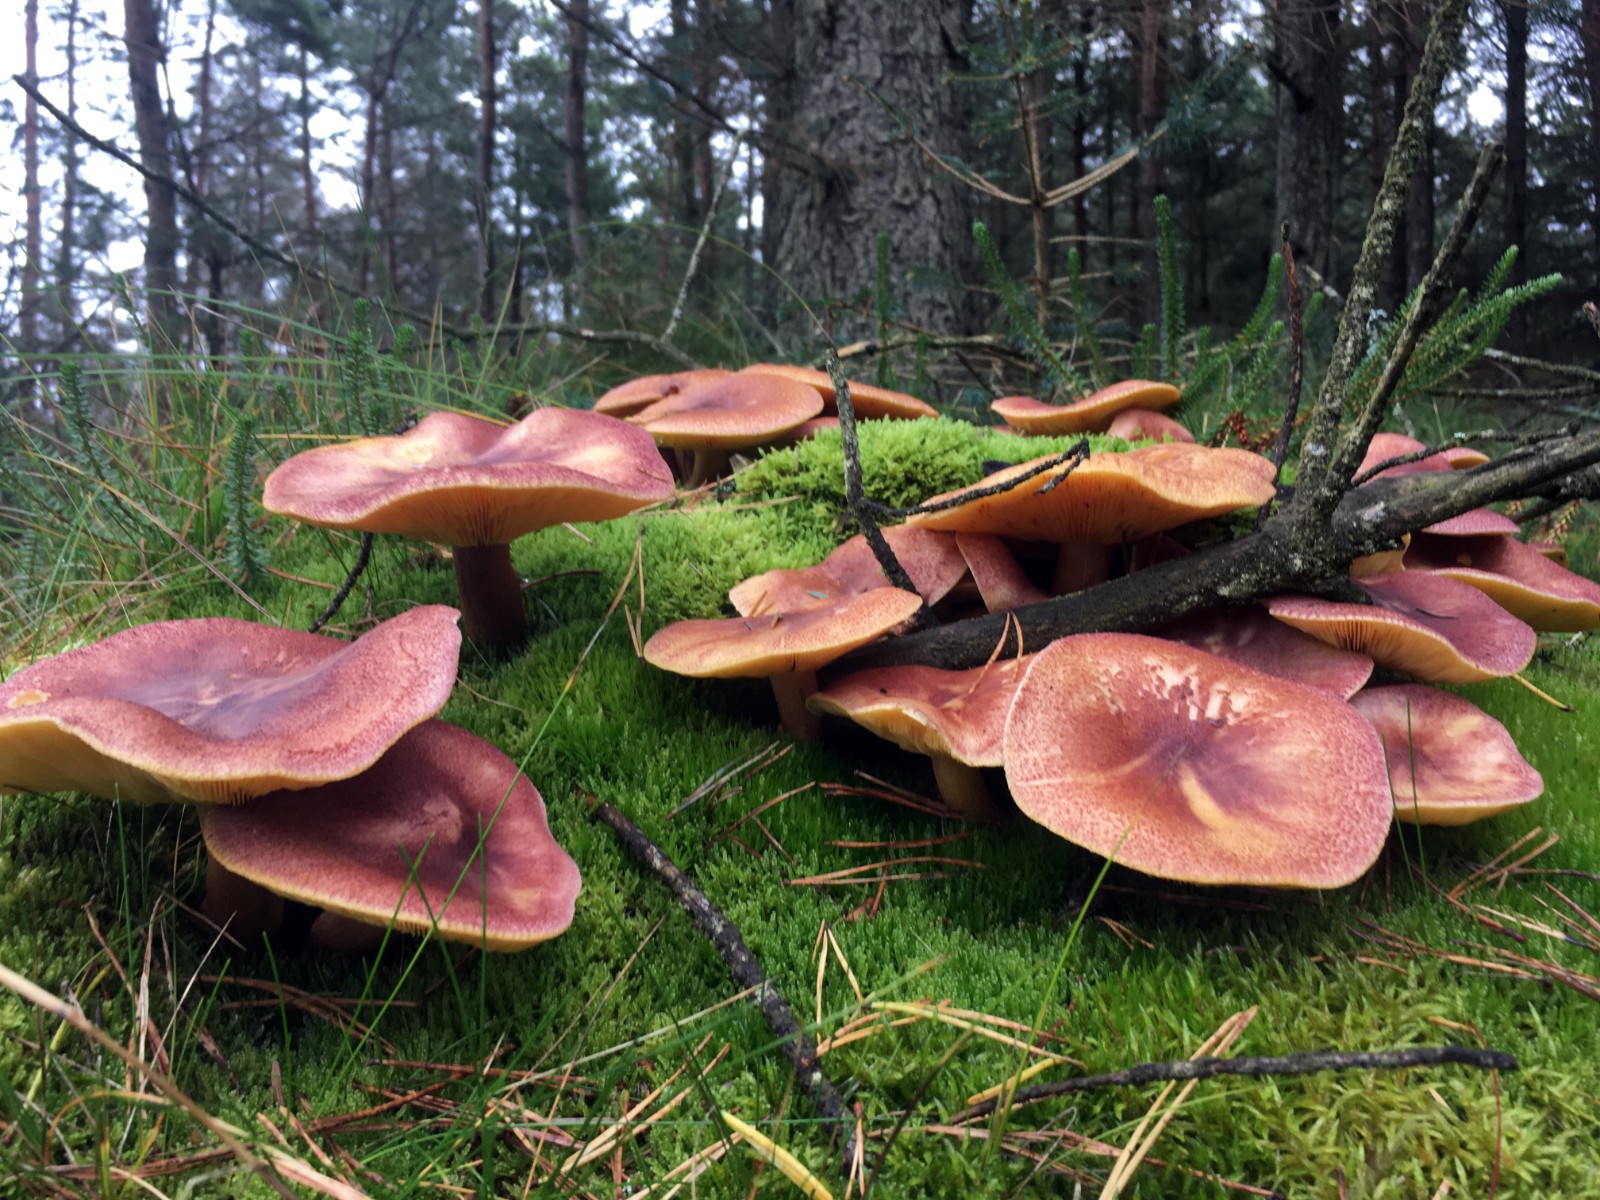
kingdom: Fungi
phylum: Basidiomycota
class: Agaricomycetes
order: Agaricales
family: Tricholomataceae
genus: Tricholomopsis
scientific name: Tricholomopsis rutilans
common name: purpur-væbnerhat
